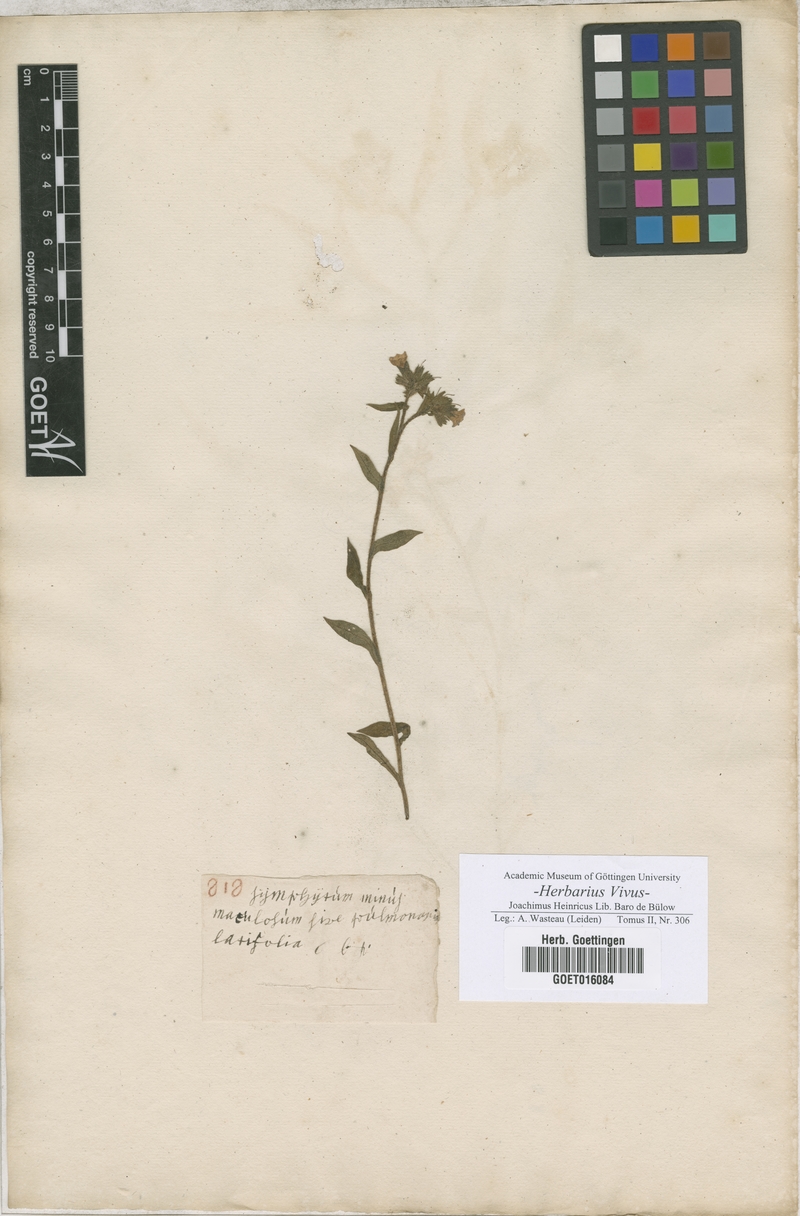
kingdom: Plantae
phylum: Tracheophyta
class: Magnoliopsida
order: Boraginales
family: Boraginaceae
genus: Pulmonaria
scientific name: Pulmonaria officinalis
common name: Lungwort
